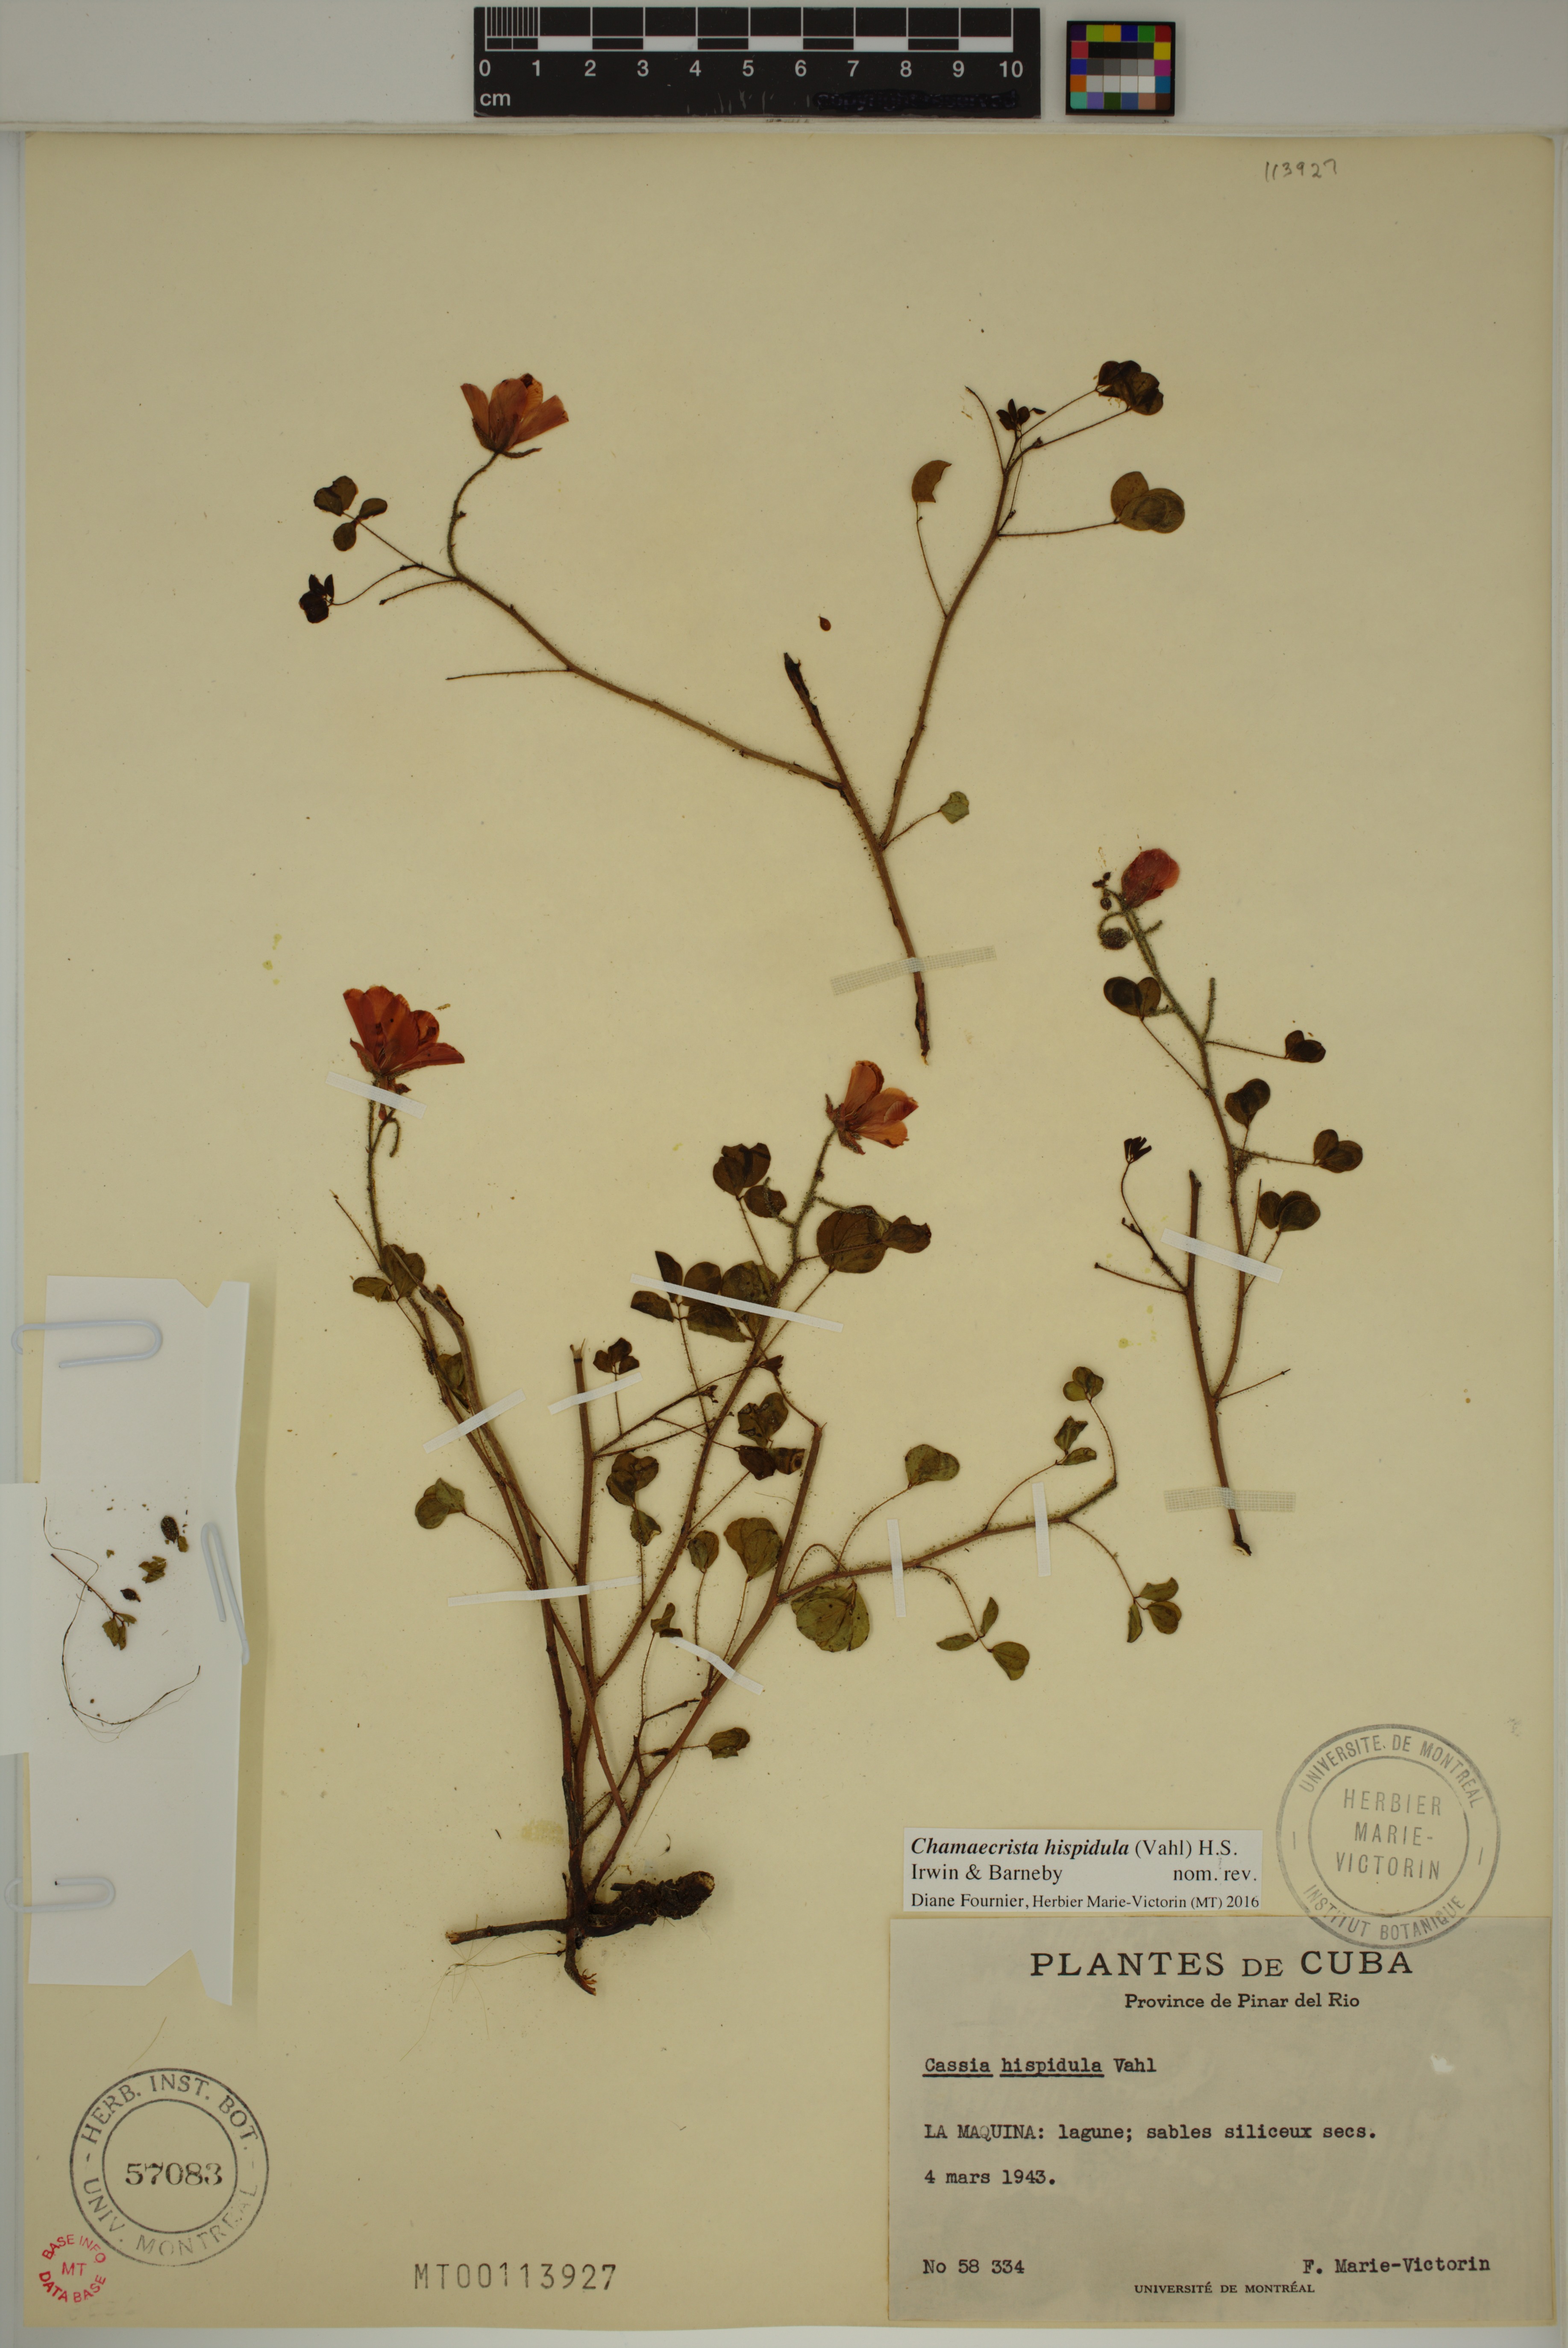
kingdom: Plantae
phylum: Tracheophyta
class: Magnoliopsida
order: Fabales
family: Fabaceae
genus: Chamaecrista
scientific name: Chamaecrista hispidula
